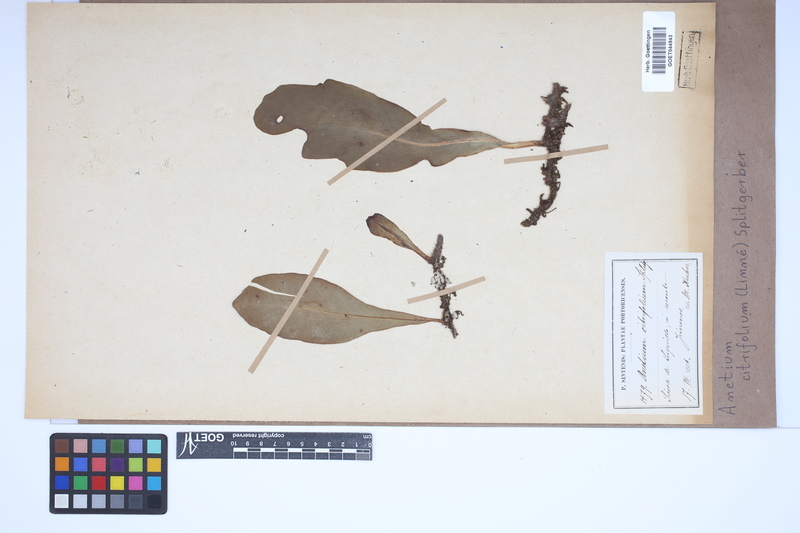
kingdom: Plantae
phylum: Tracheophyta
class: Polypodiopsida
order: Polypodiales
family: Pteridaceae
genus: Polytaenium
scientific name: Polytaenium citrifolium
